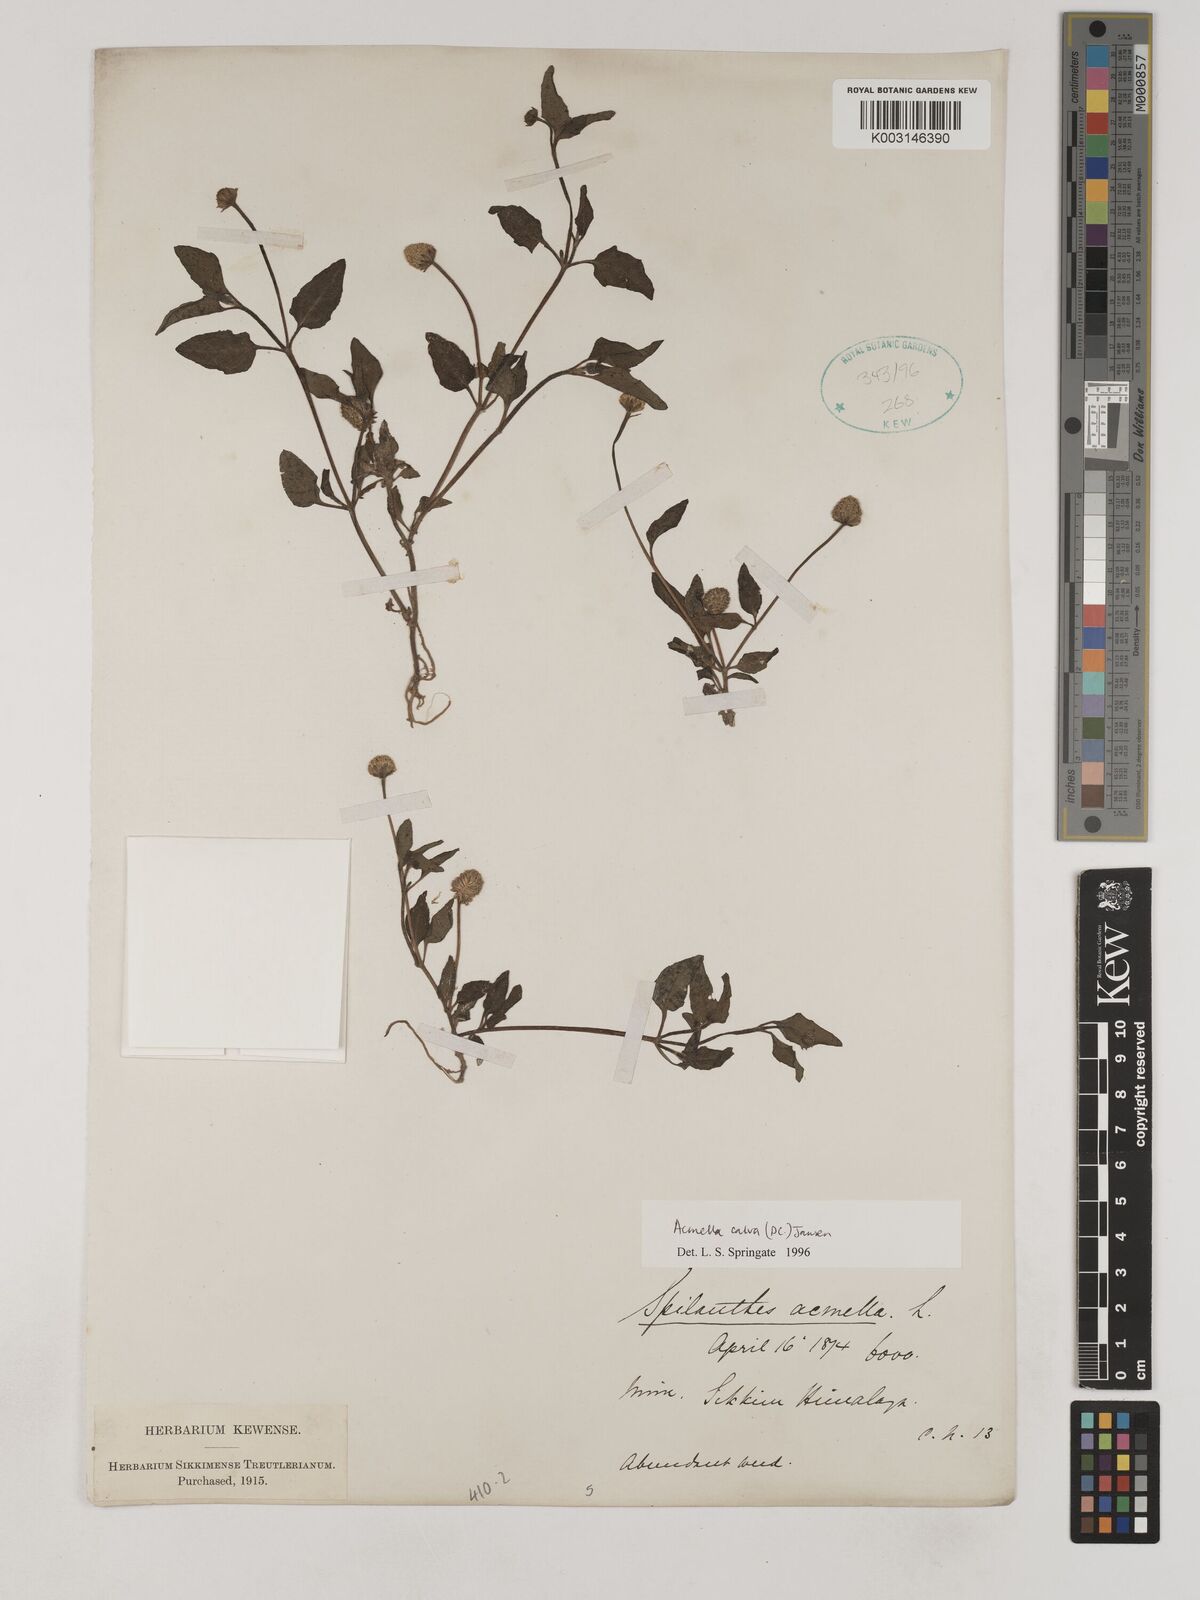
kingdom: Plantae
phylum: Tracheophyta
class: Magnoliopsida
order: Asterales
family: Asteraceae
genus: Acmella
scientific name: Acmella calva
